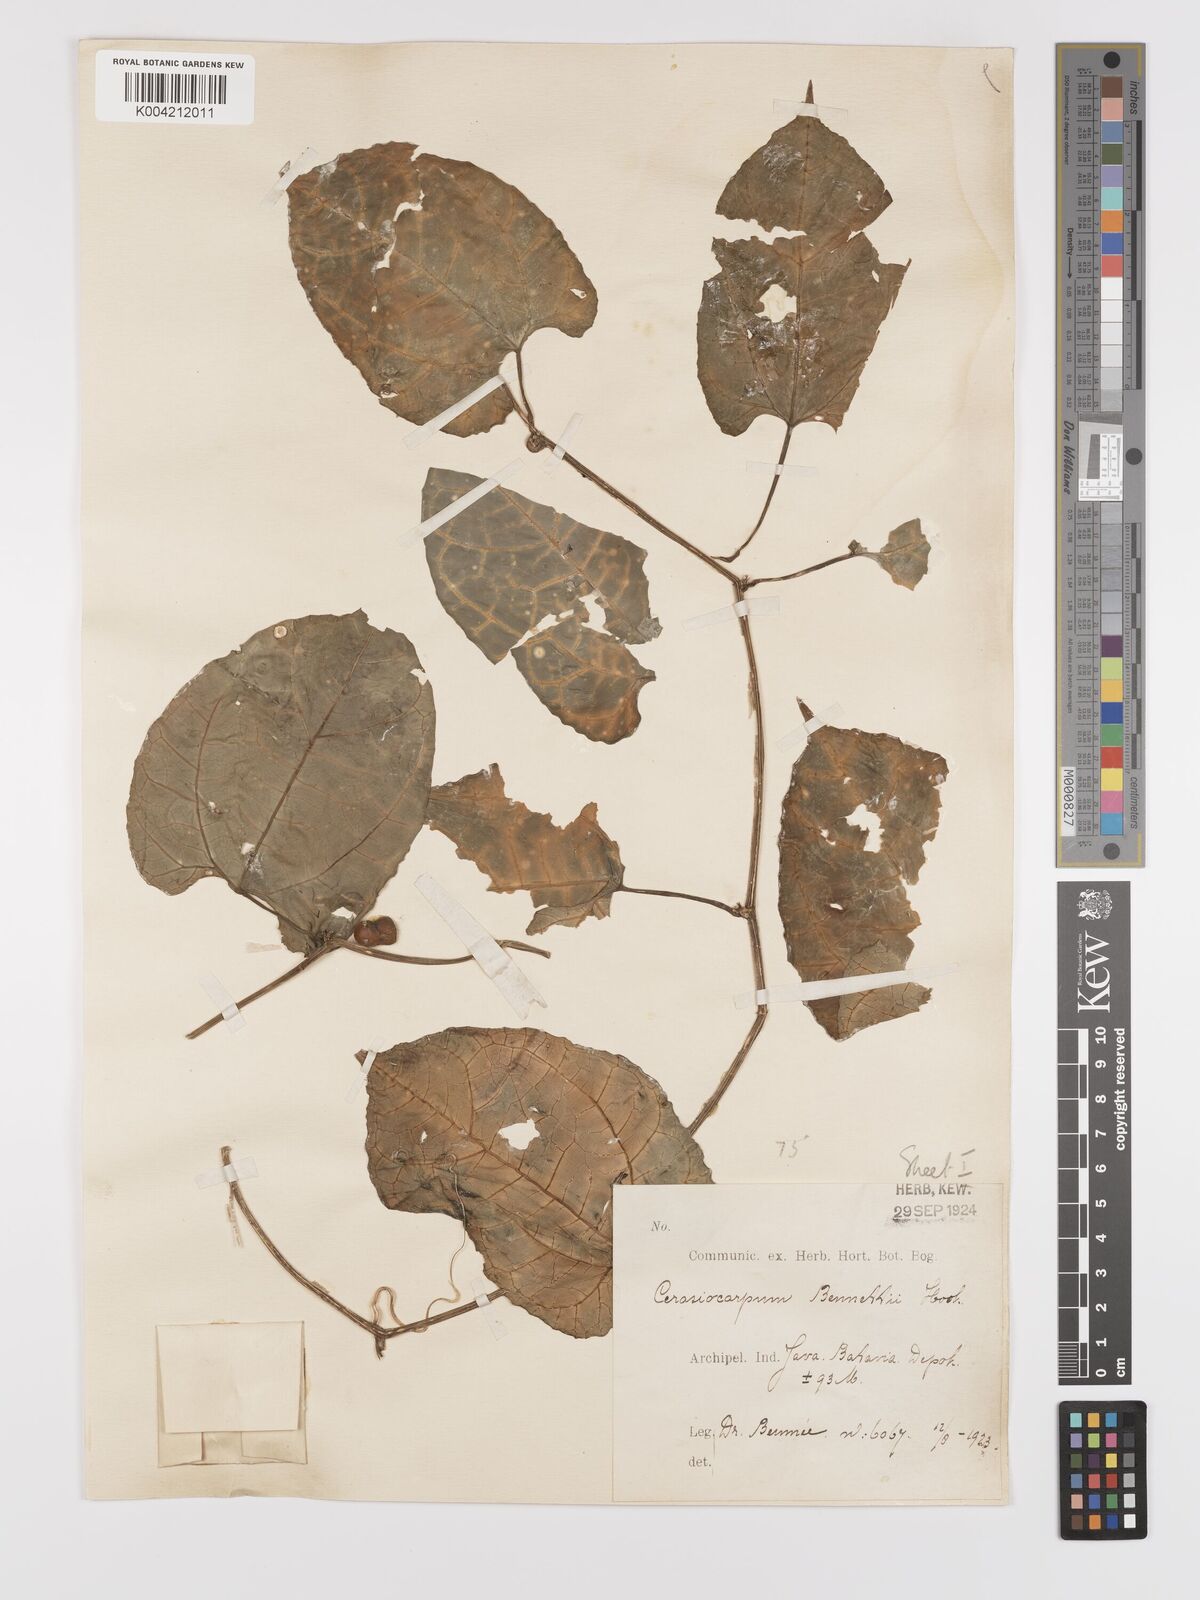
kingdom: Plantae
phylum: Tracheophyta
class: Magnoliopsida
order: Cucurbitales
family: Cucurbitaceae
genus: Kedrostis
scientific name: Kedrostis courtallensis
